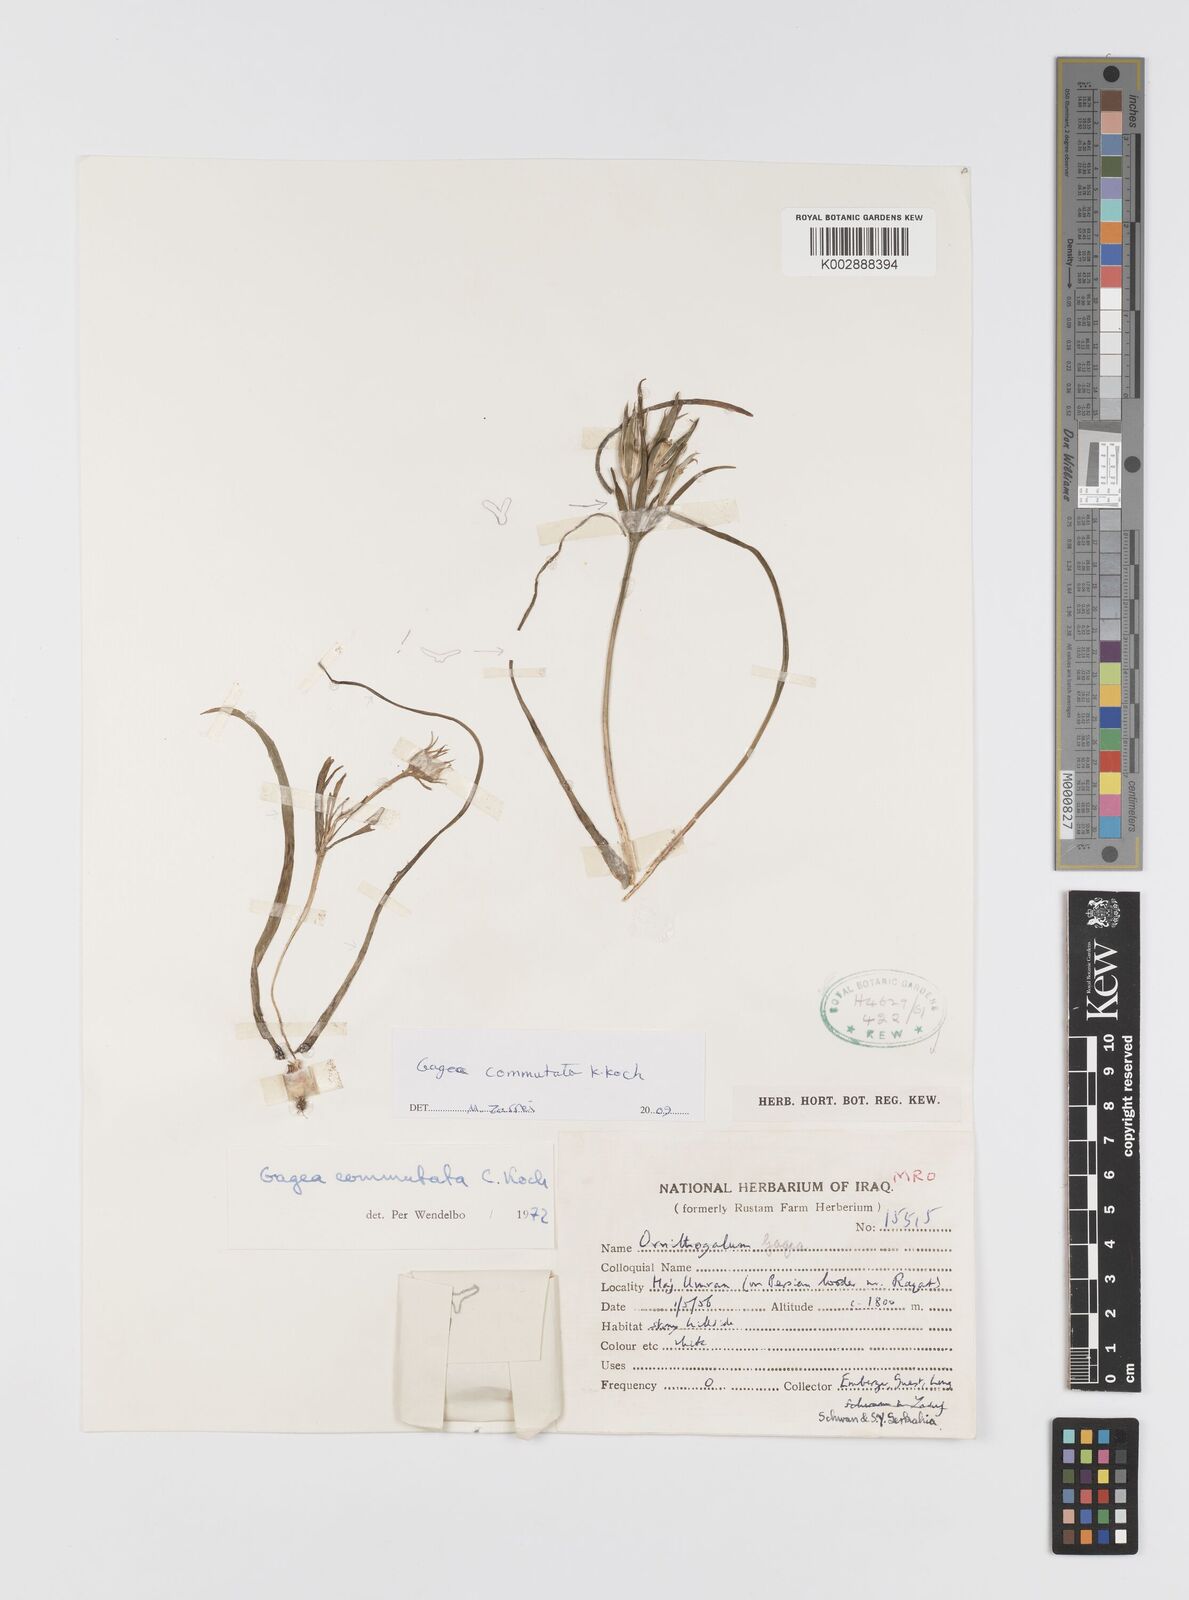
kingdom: Plantae
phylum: Tracheophyta
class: Liliopsida
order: Liliales
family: Liliaceae
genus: Gagea
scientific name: Gagea commutata
